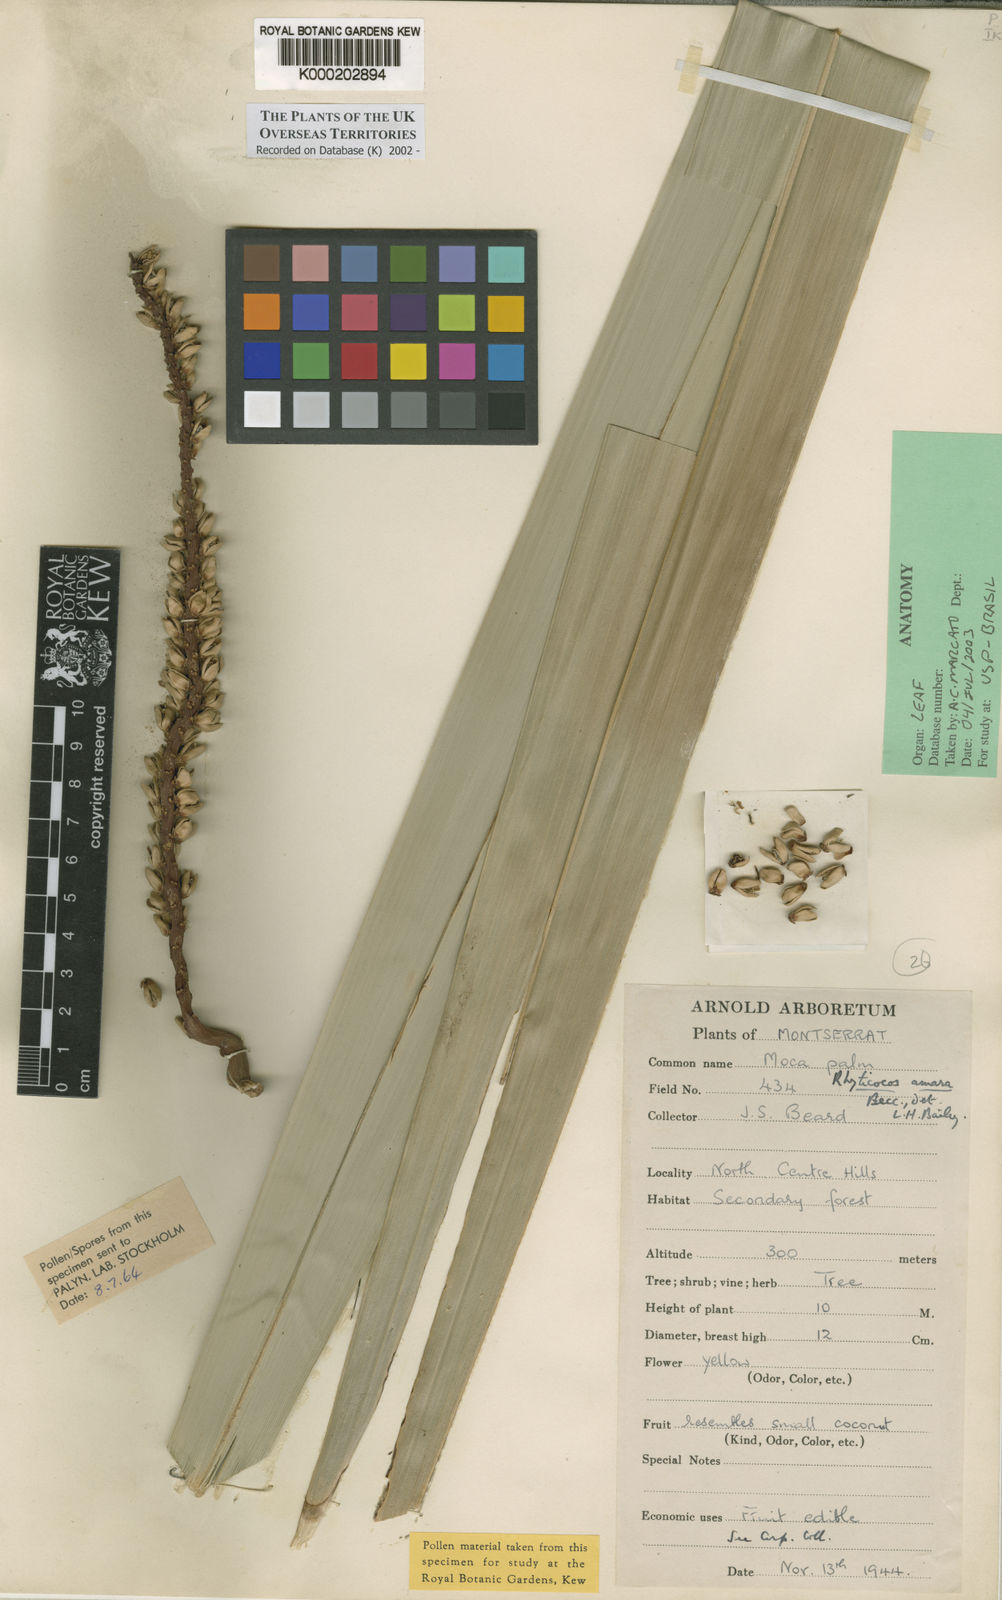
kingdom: Plantae
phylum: Tracheophyta
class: Liliopsida
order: Arecales
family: Arecaceae
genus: Syagrus
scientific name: Syagrus amara
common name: Overtop palm
